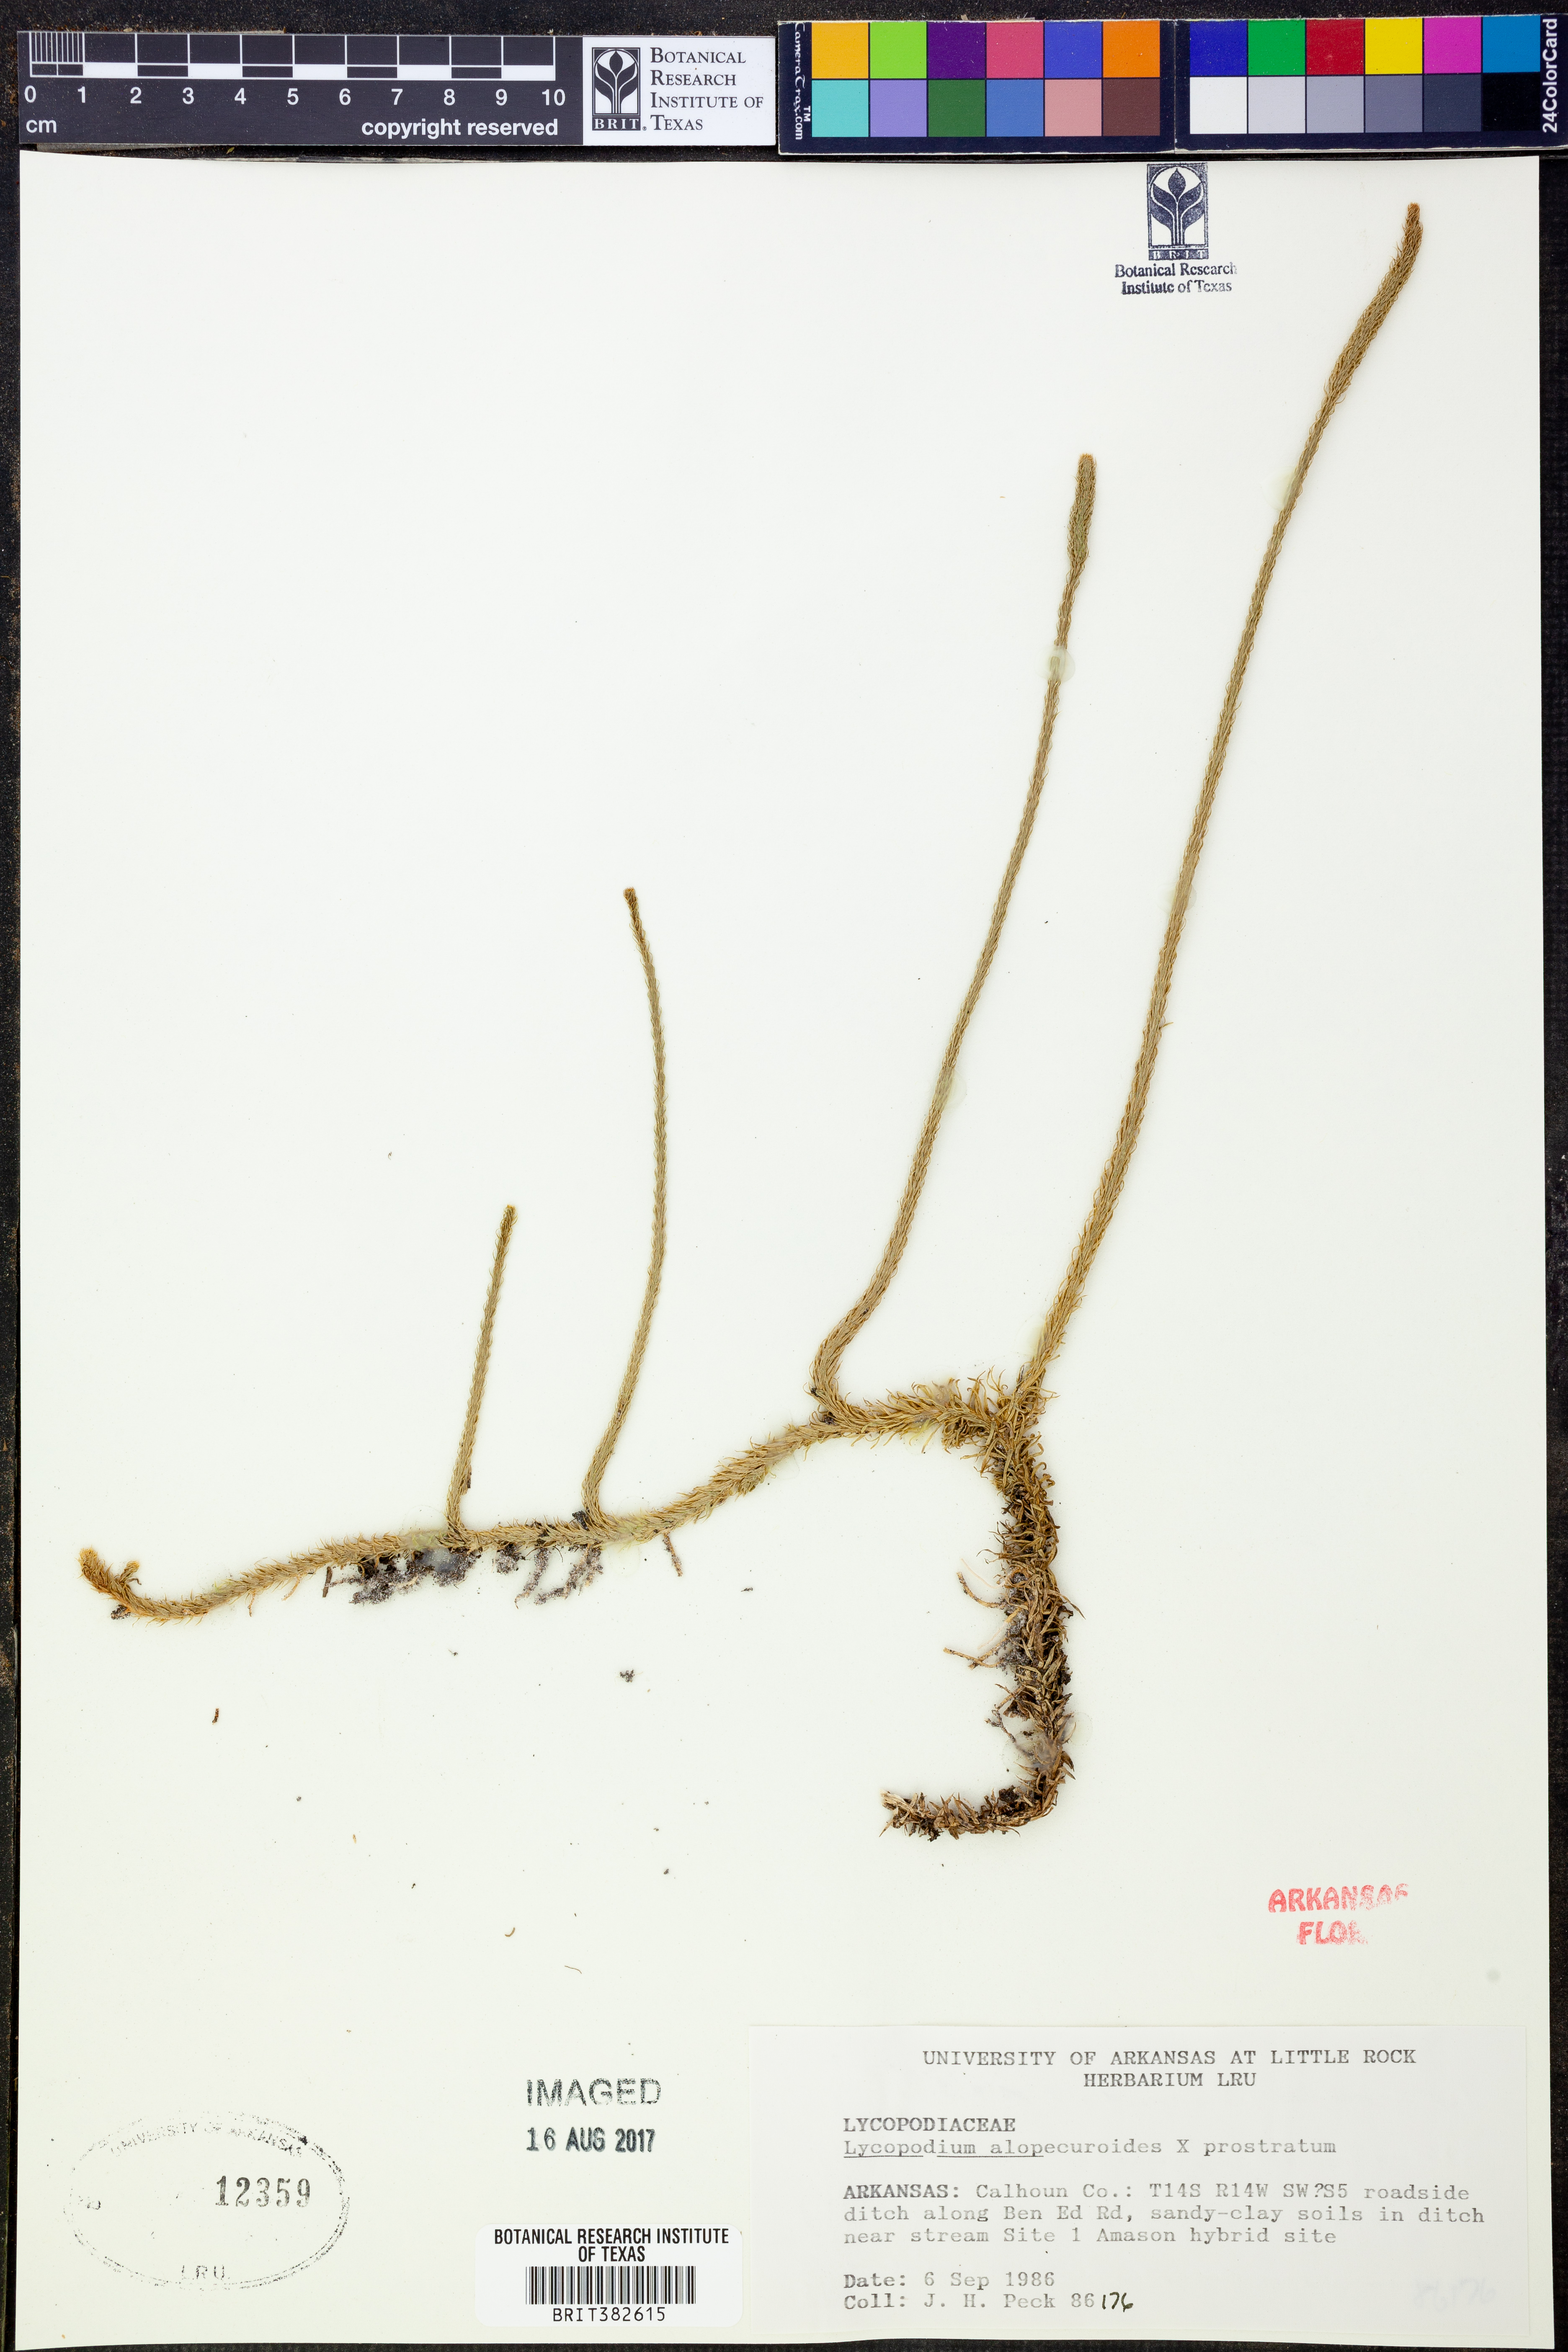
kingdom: Plantae
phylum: Tracheophyta
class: Lycopodiopsida
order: Lycopodiales
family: Lycopodiaceae
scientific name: Lycopodiaceae
